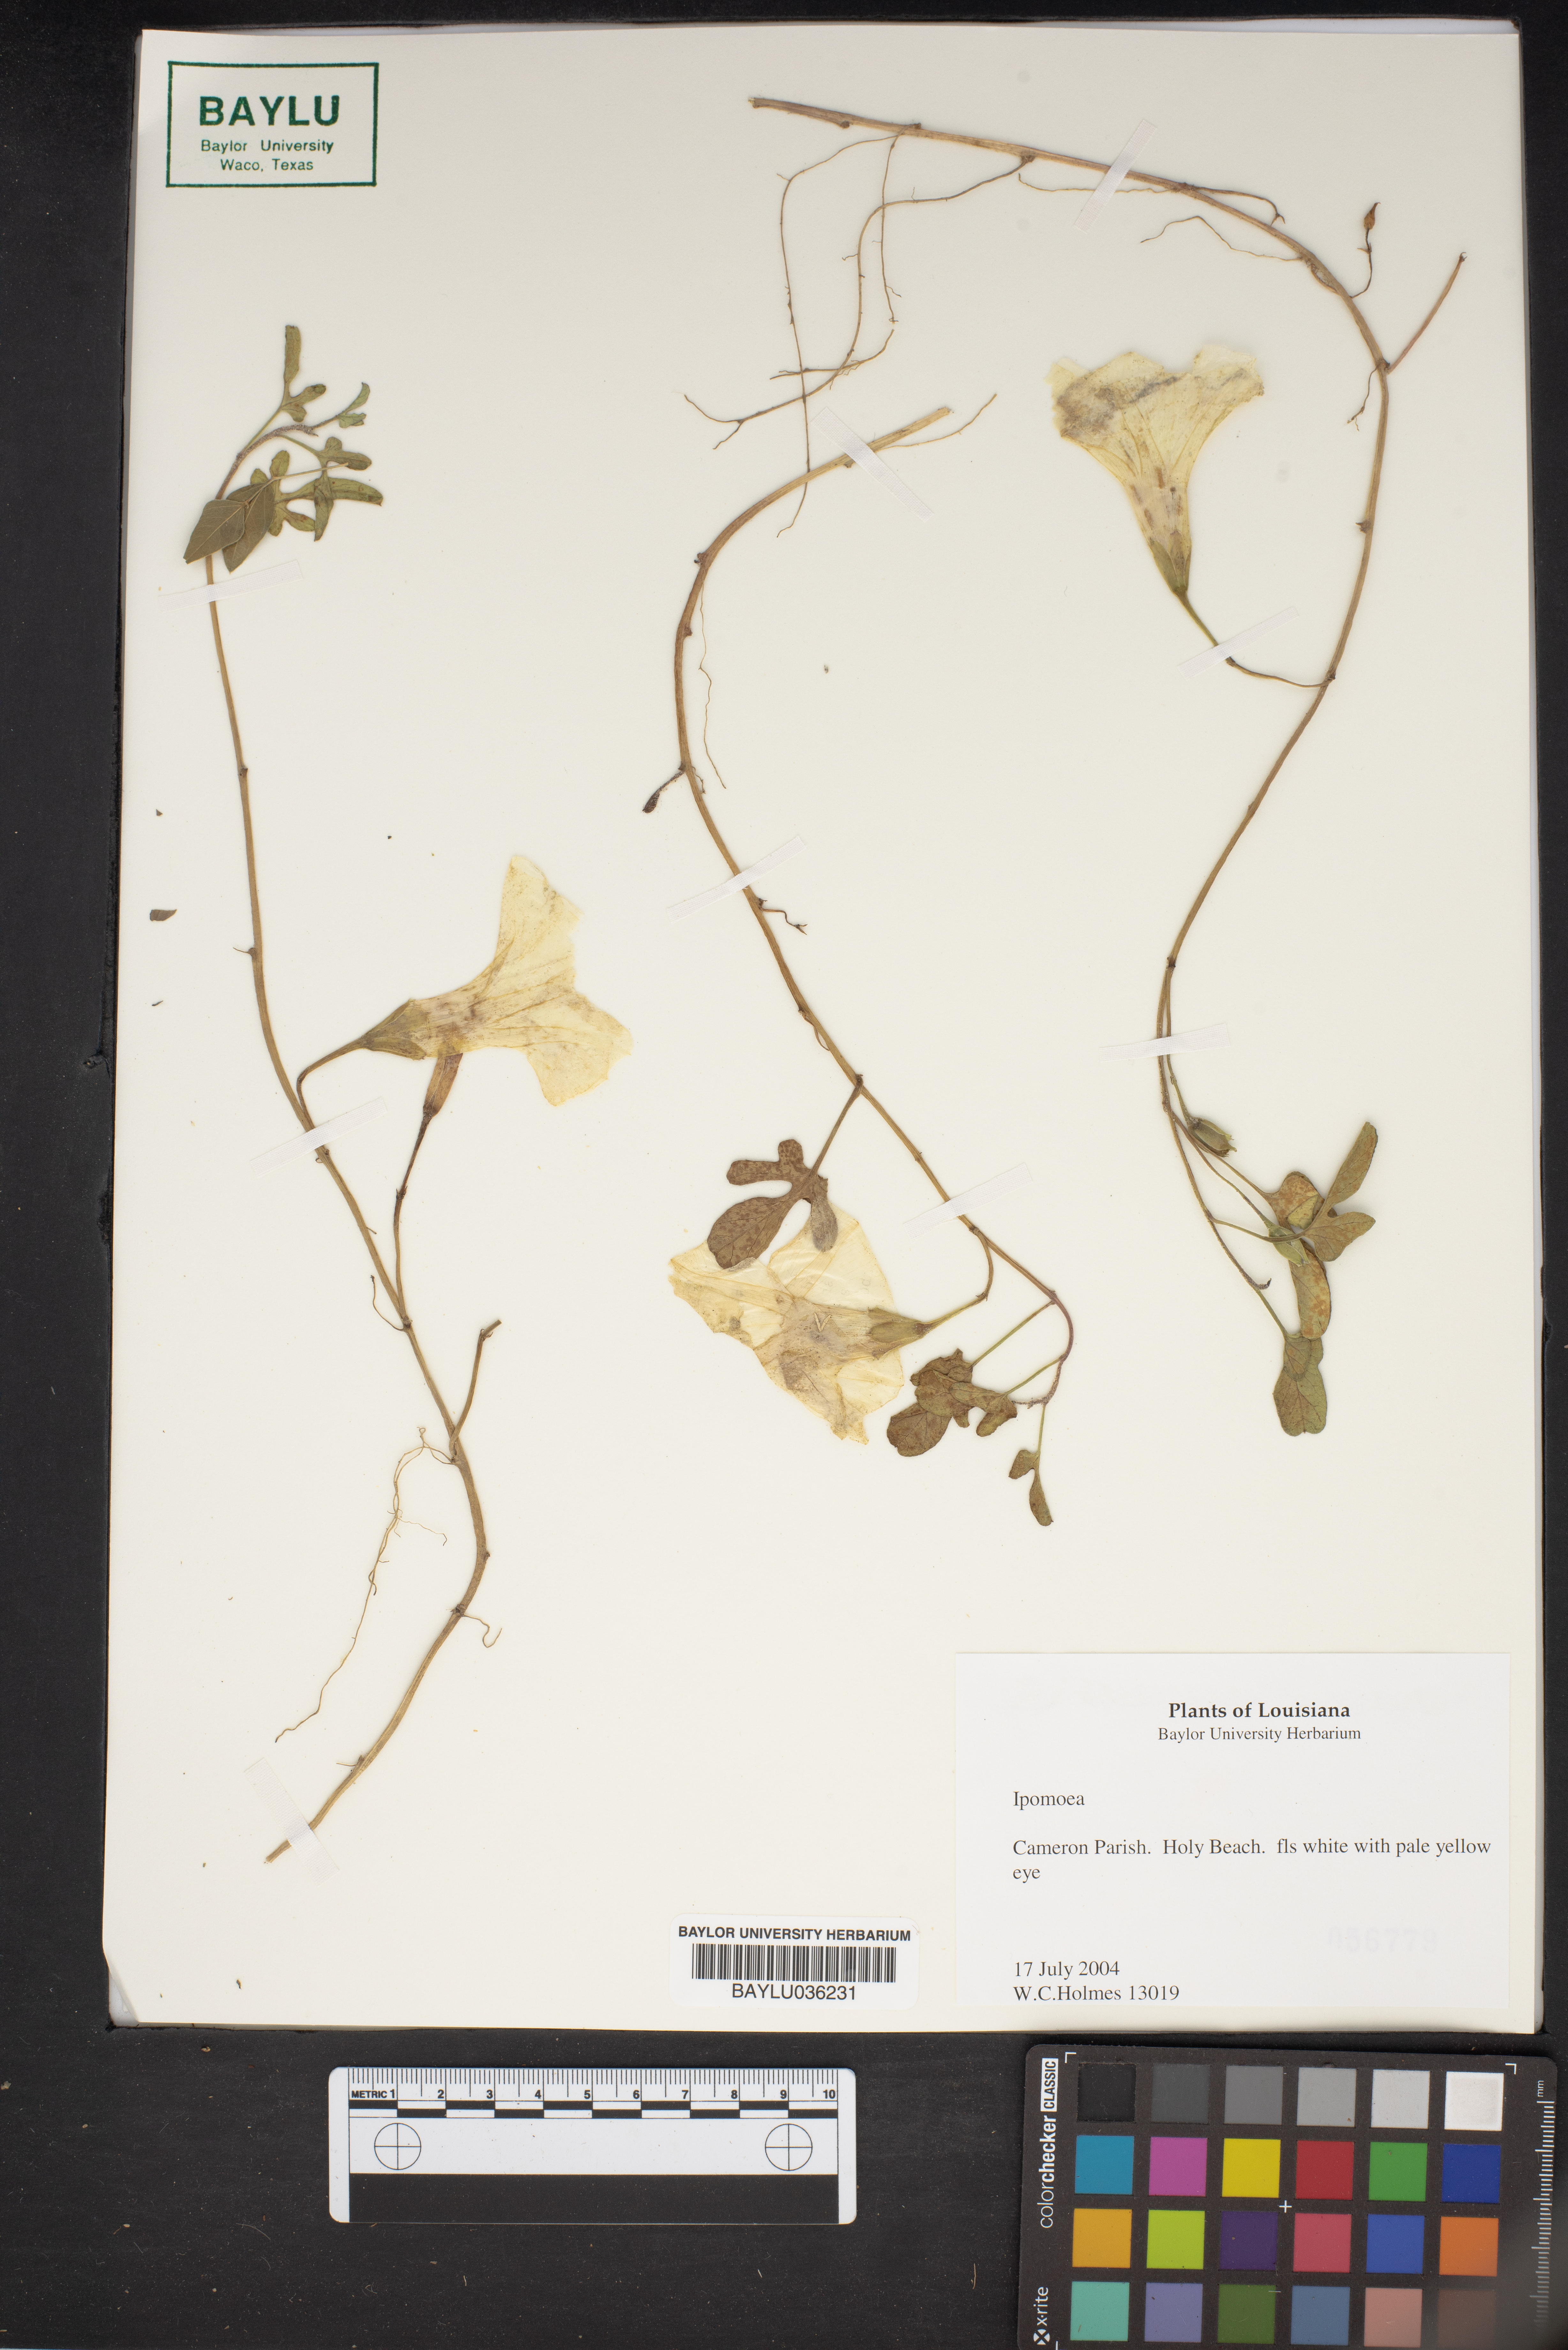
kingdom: Plantae
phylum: Tracheophyta
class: Magnoliopsida
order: Solanales
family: Convolvulaceae
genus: Ipomoea
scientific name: Ipomoea
